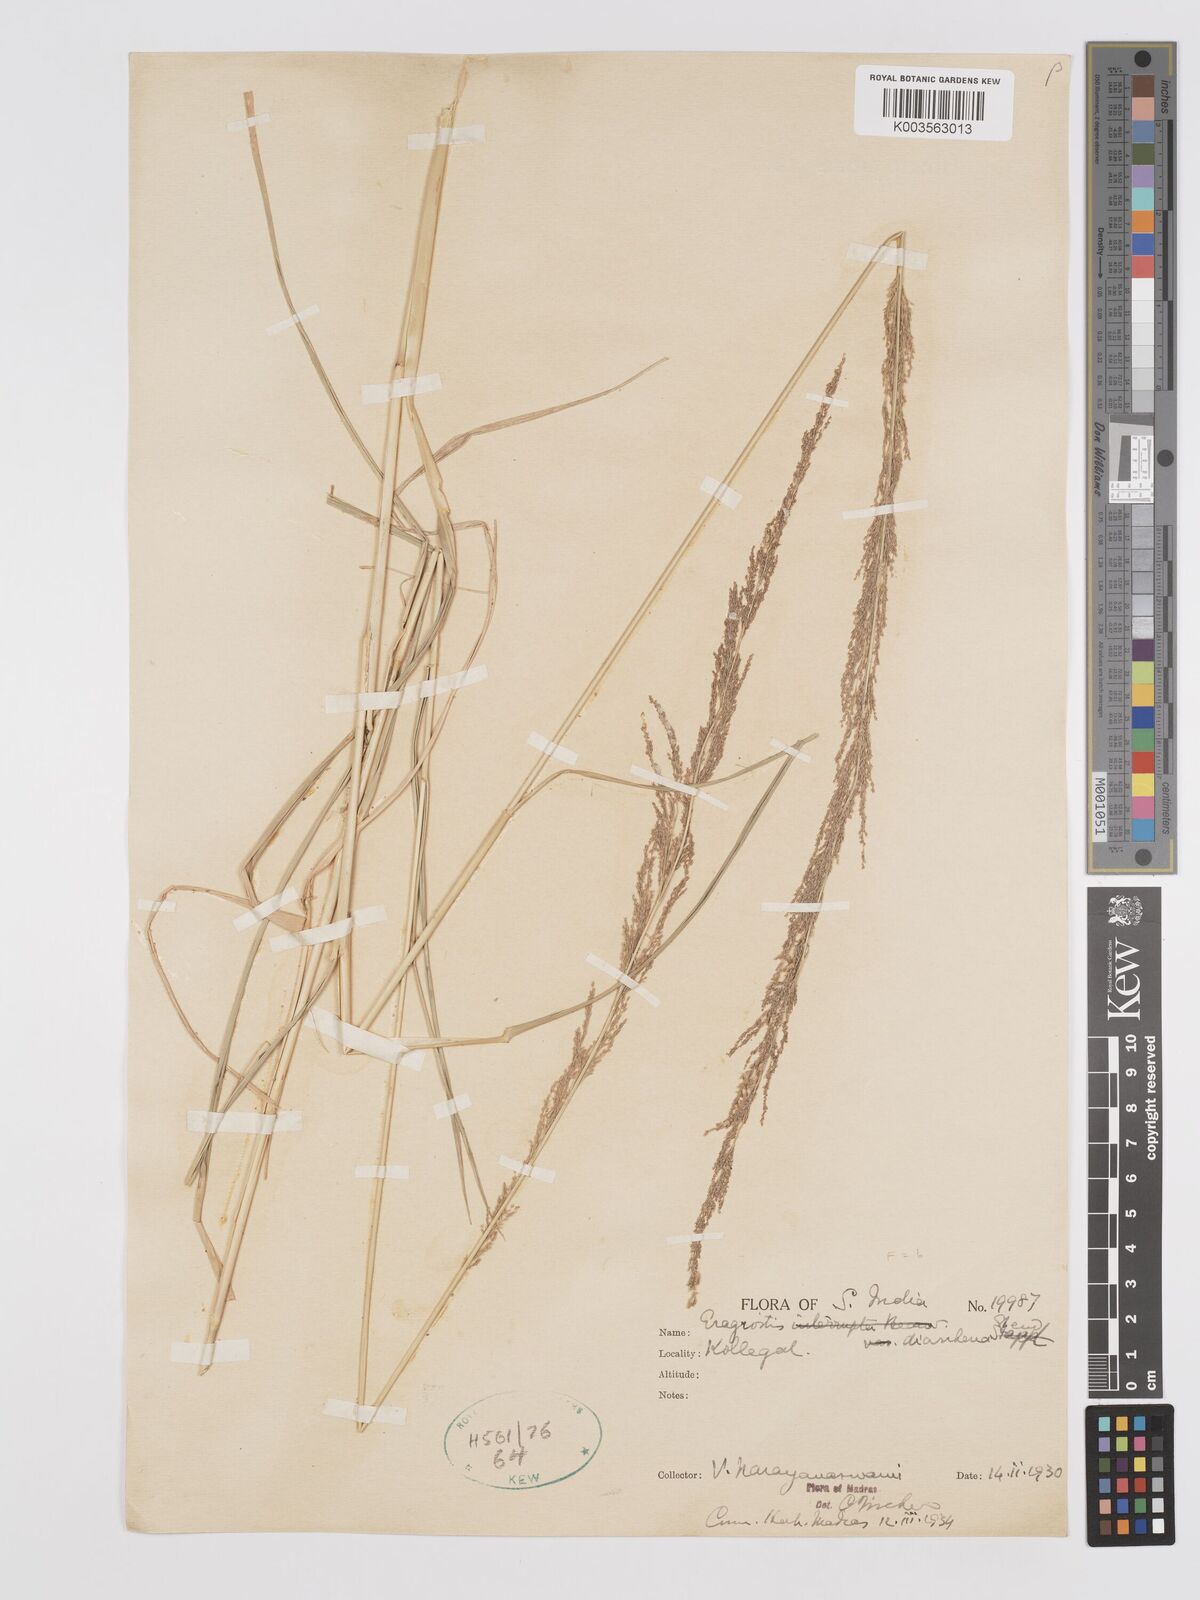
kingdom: Plantae
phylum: Tracheophyta
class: Liliopsida
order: Poales
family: Poaceae
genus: Eragrostis
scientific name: Eragrostis japonica
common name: Pond lovegrass
